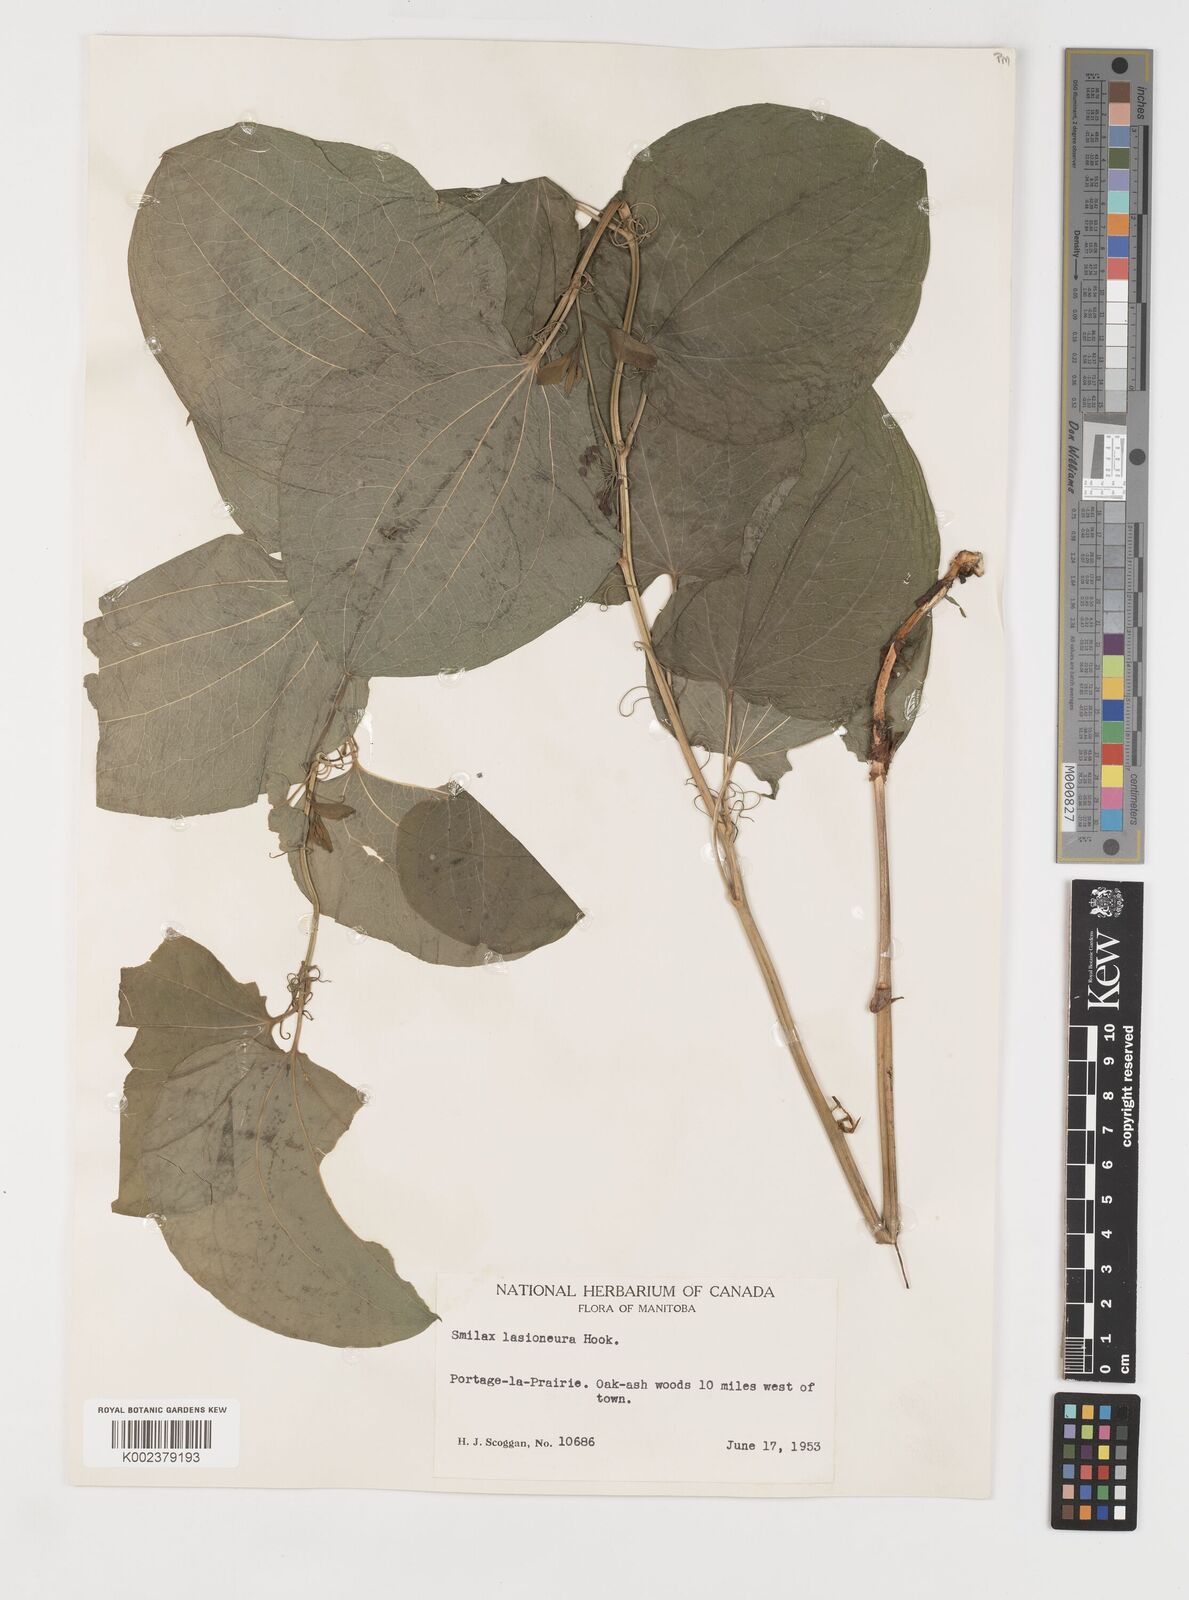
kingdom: Plantae
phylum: Tracheophyta
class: Liliopsida
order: Liliales
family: Smilacaceae
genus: Smilax
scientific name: Smilax lasioneura
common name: Blue ridge carrionflower
